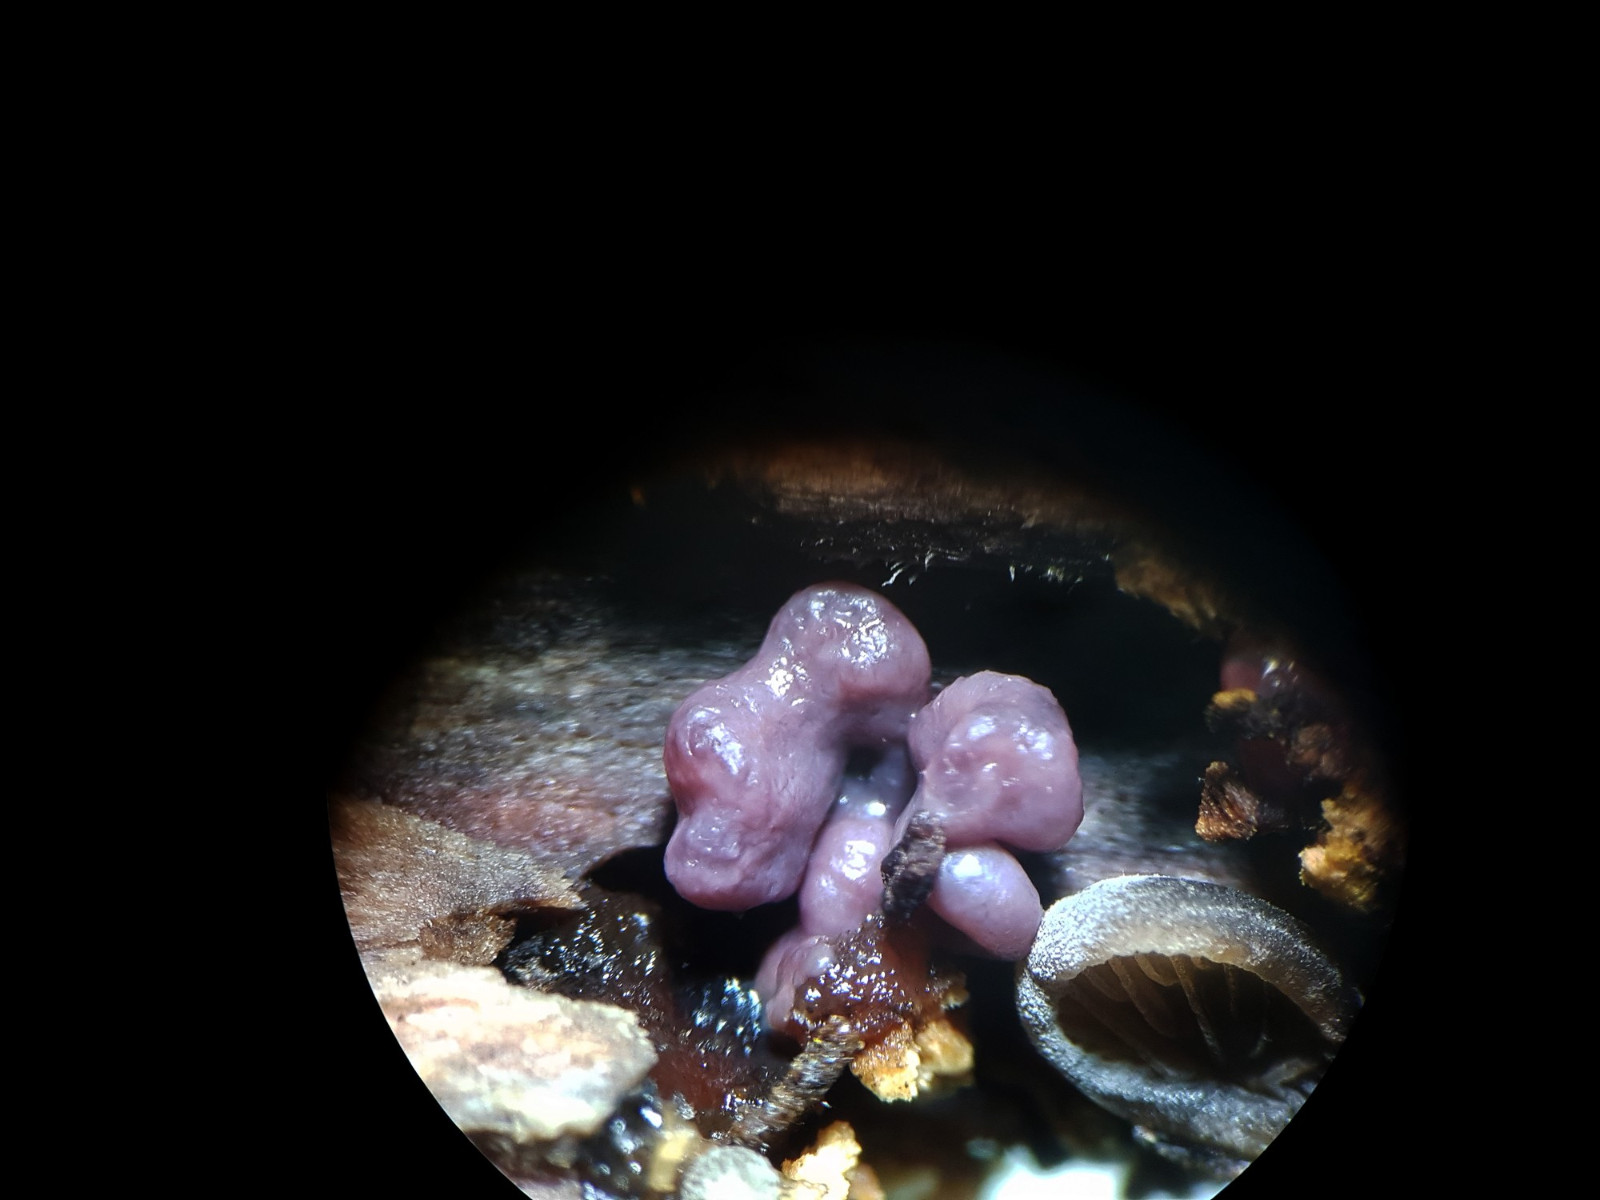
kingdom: Fungi
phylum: Ascomycota
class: Leotiomycetes
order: Helotiales
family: Gelatinodiscaceae
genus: Ascocoryne
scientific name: Ascocoryne sarcoides
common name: rødlilla sejskive
